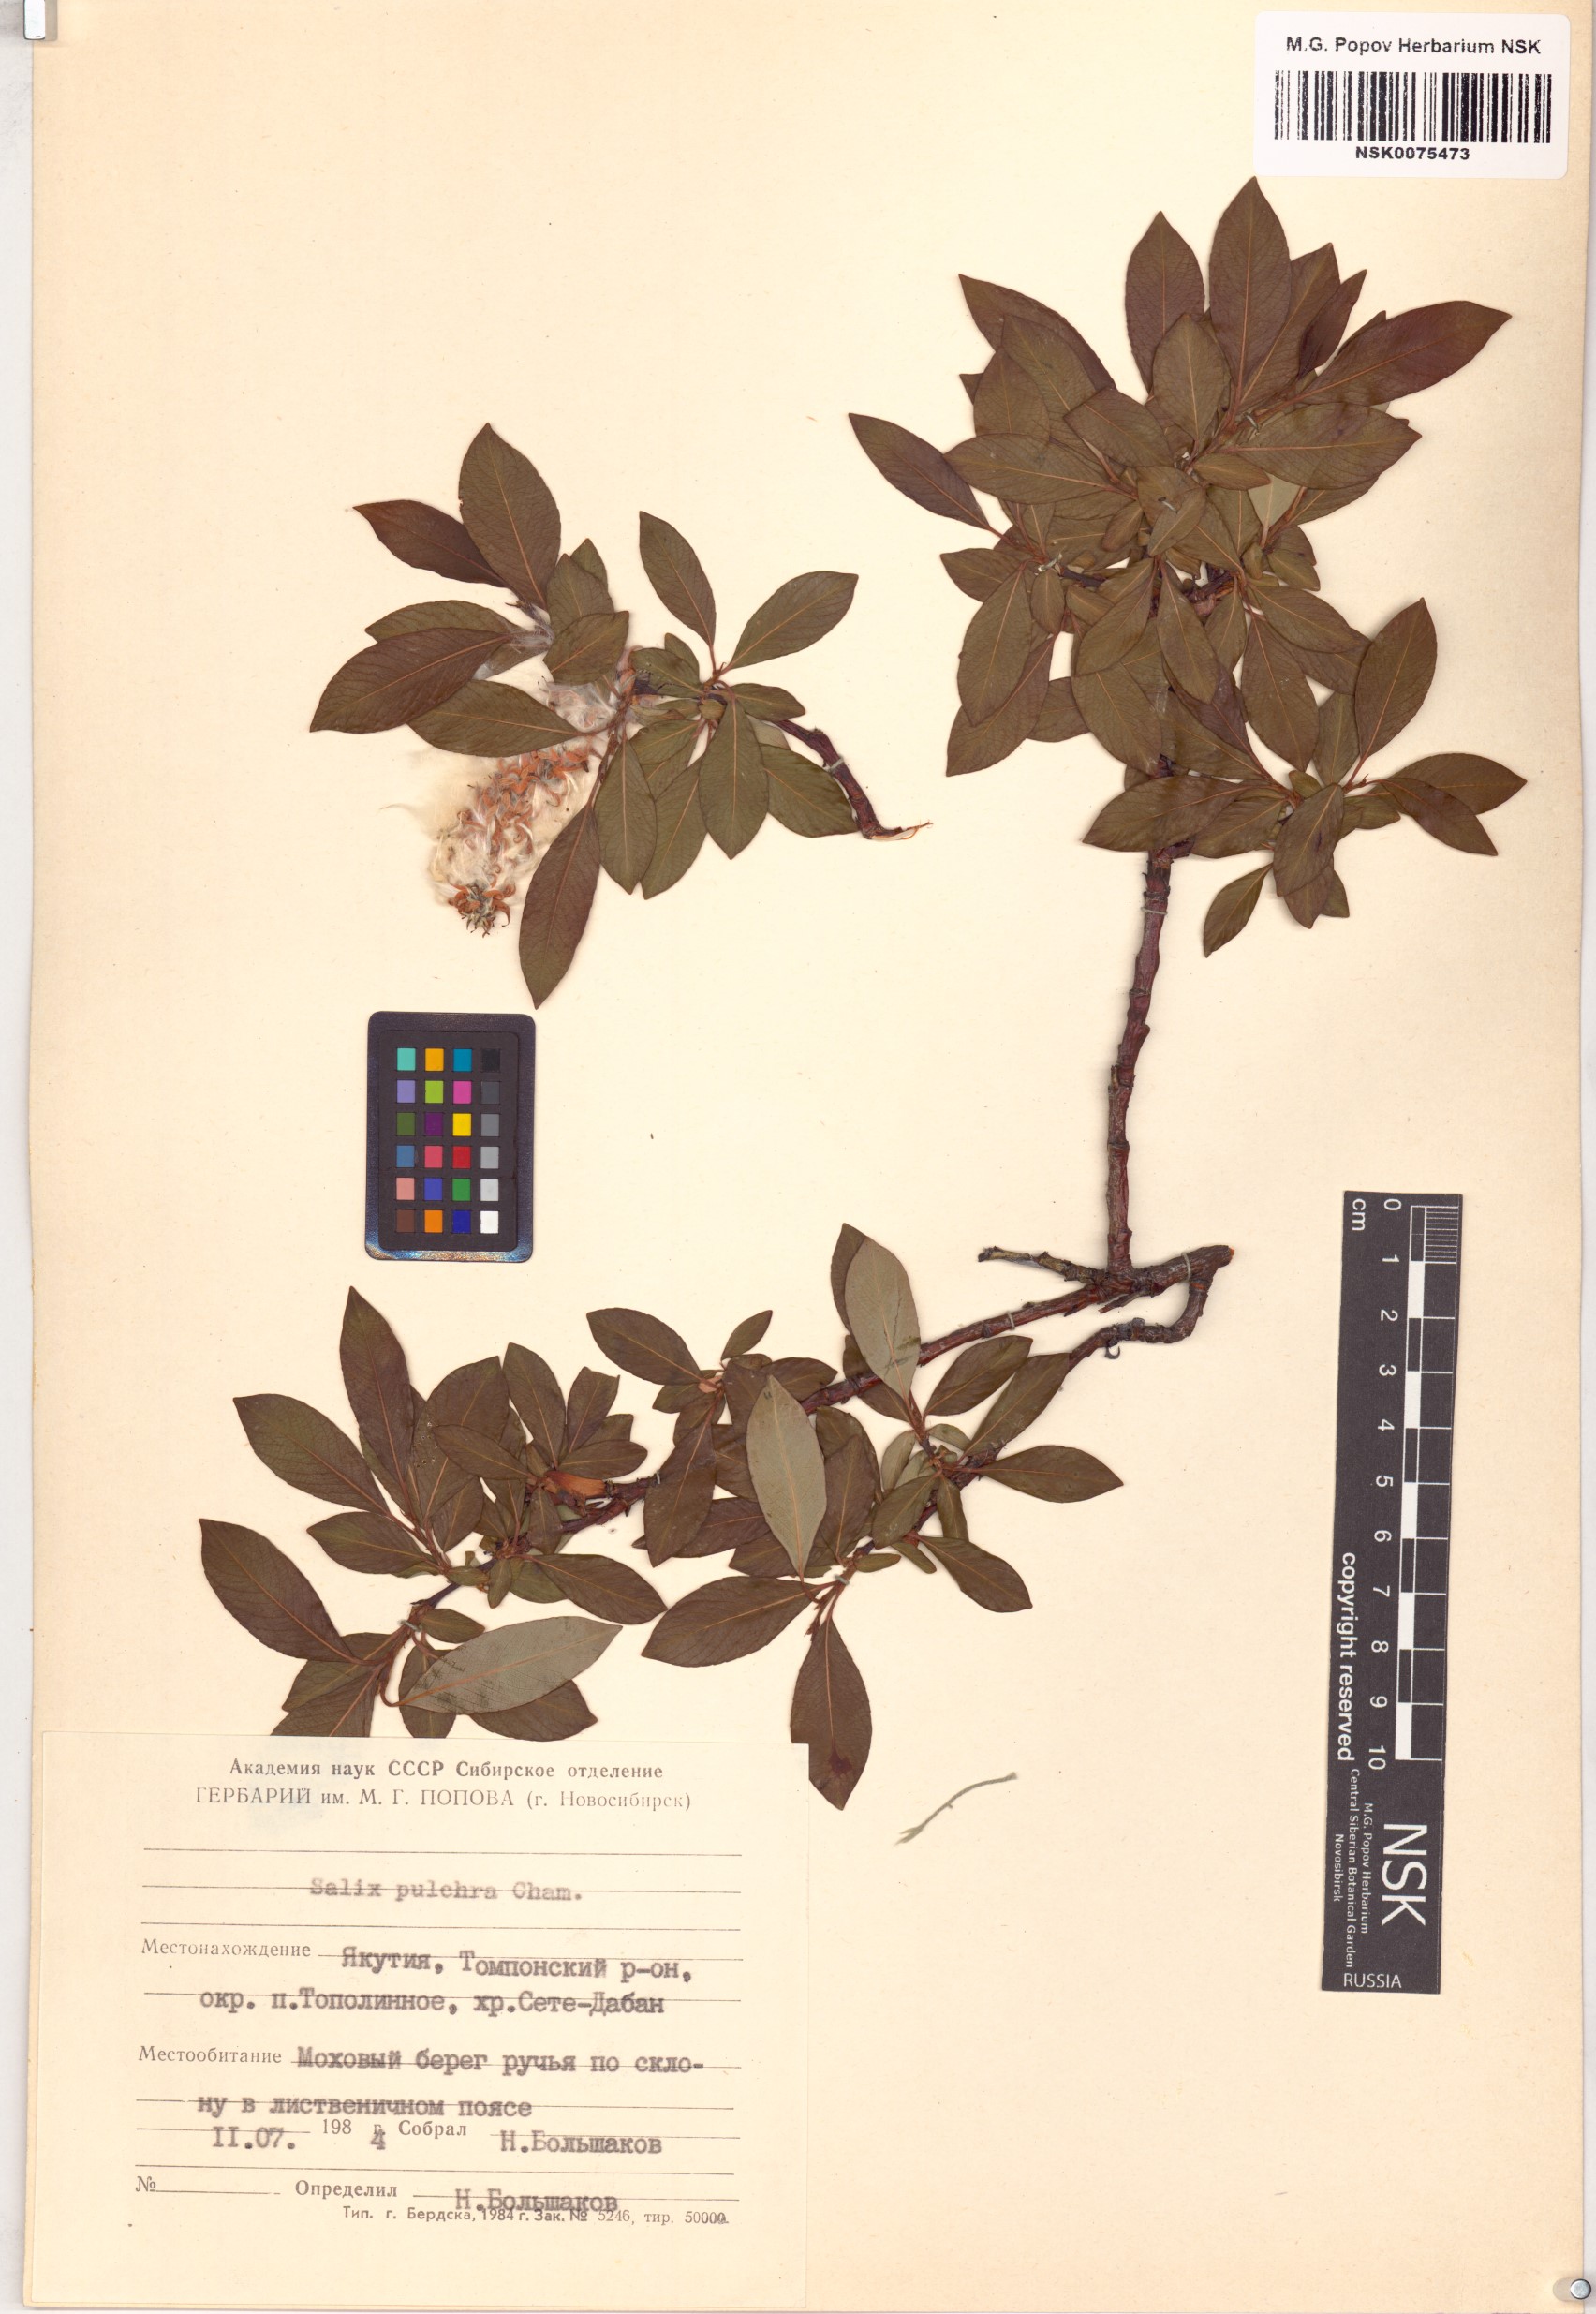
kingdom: Plantae
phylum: Tracheophyta
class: Magnoliopsida
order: Malpighiales
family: Salicaceae
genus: Salix
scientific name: Salix pulchra
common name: Diamond-leaved willow
